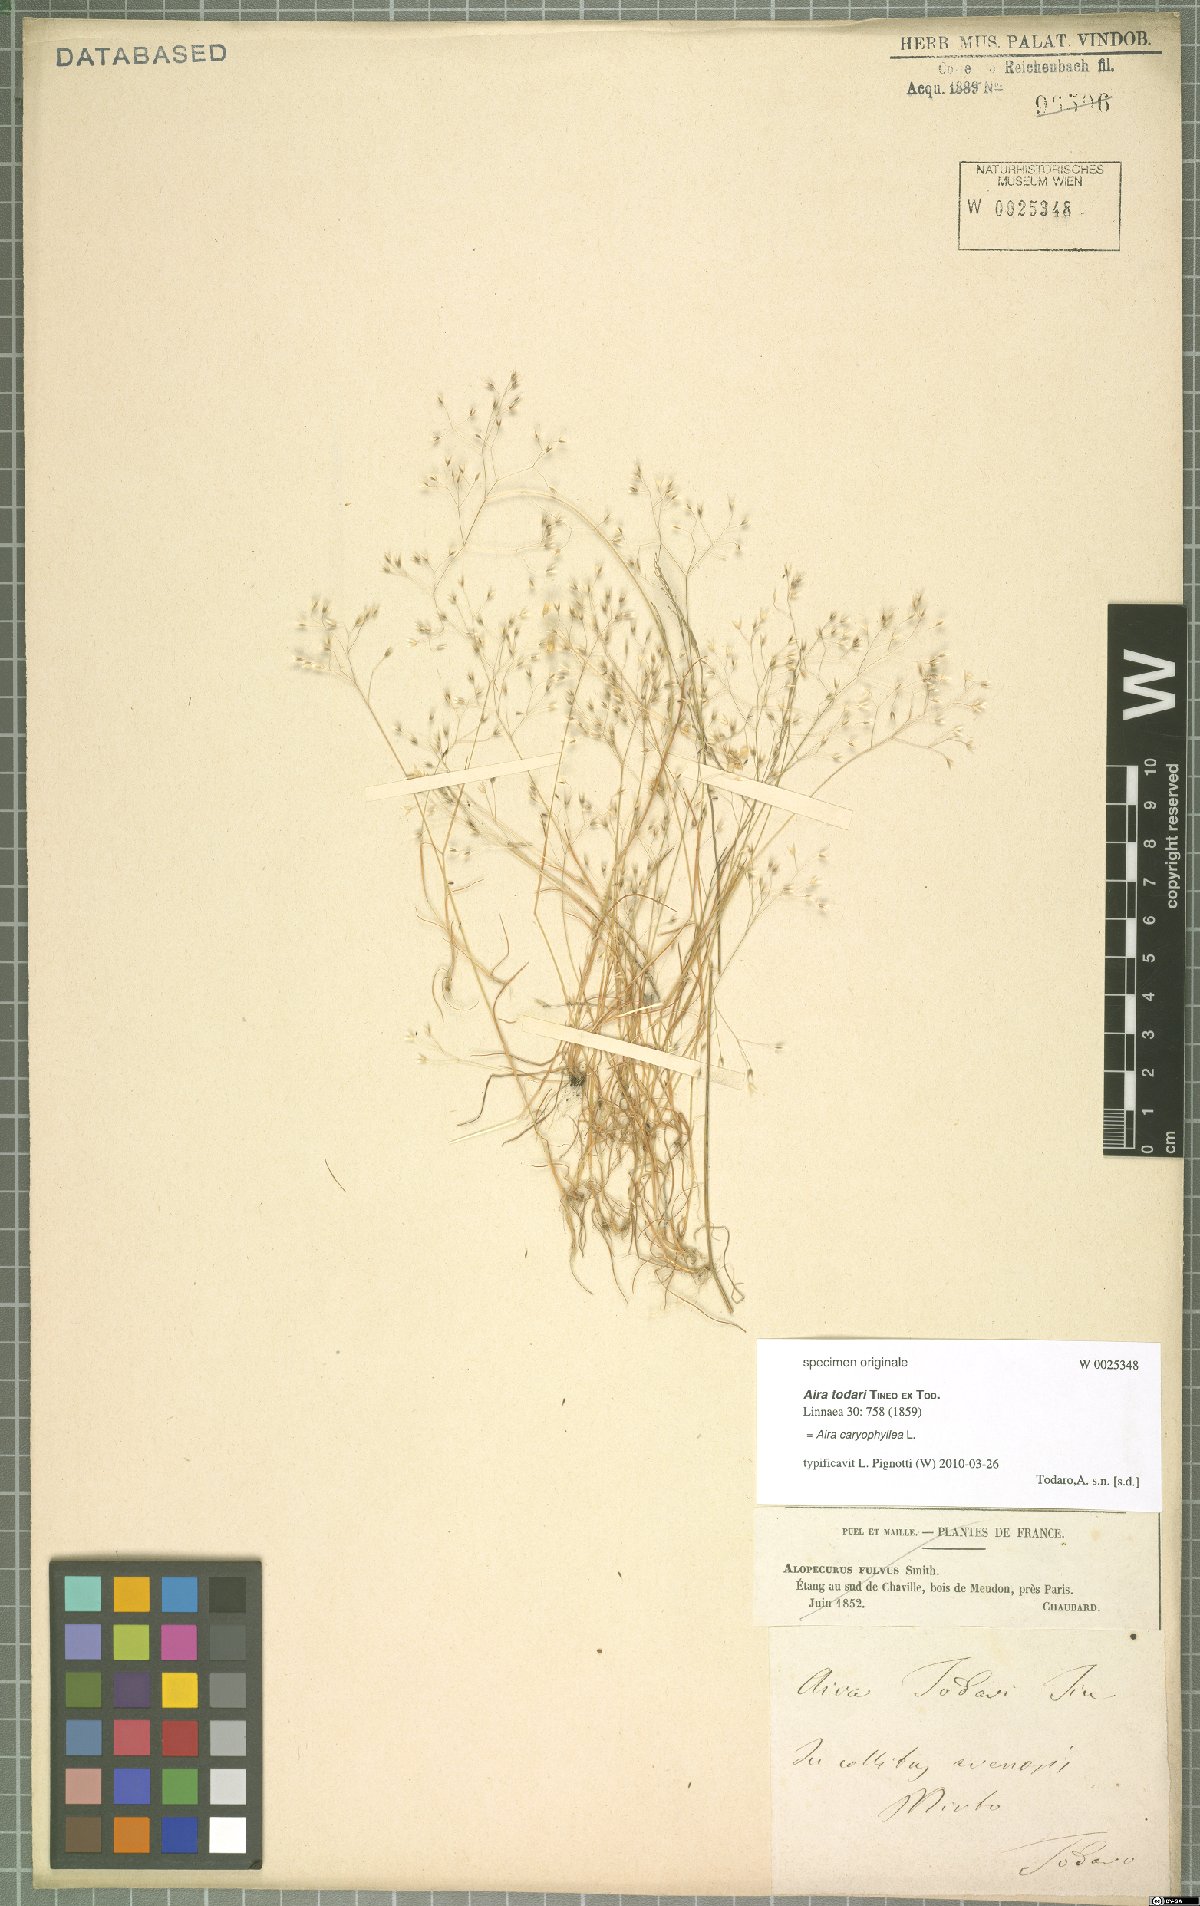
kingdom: Plantae
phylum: Tracheophyta
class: Liliopsida
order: Poales
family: Poaceae
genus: Aira
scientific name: Aira caryophyllea
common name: Silver hairgrass
